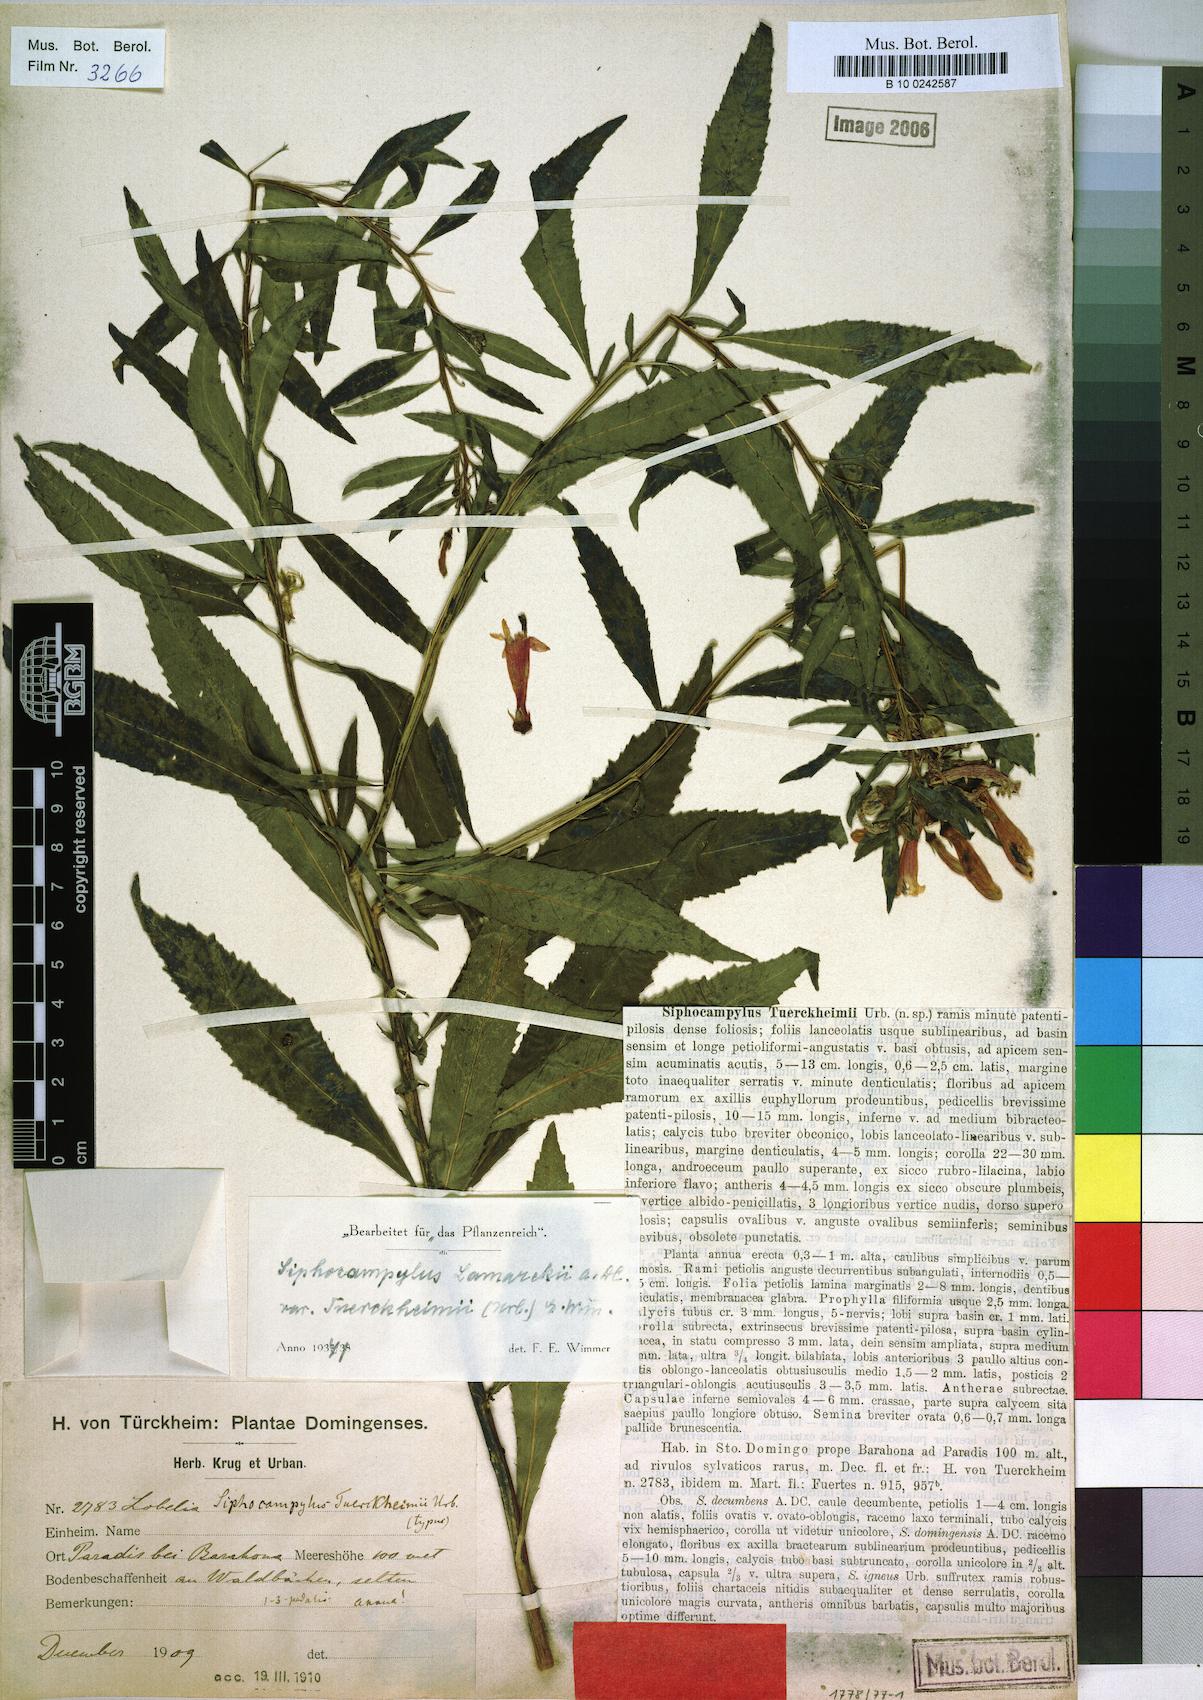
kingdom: Plantae
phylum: Tracheophyta
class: Magnoliopsida
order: Asterales
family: Campanulaceae
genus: Siphocampylus
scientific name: Siphocampylus sonchifolius
